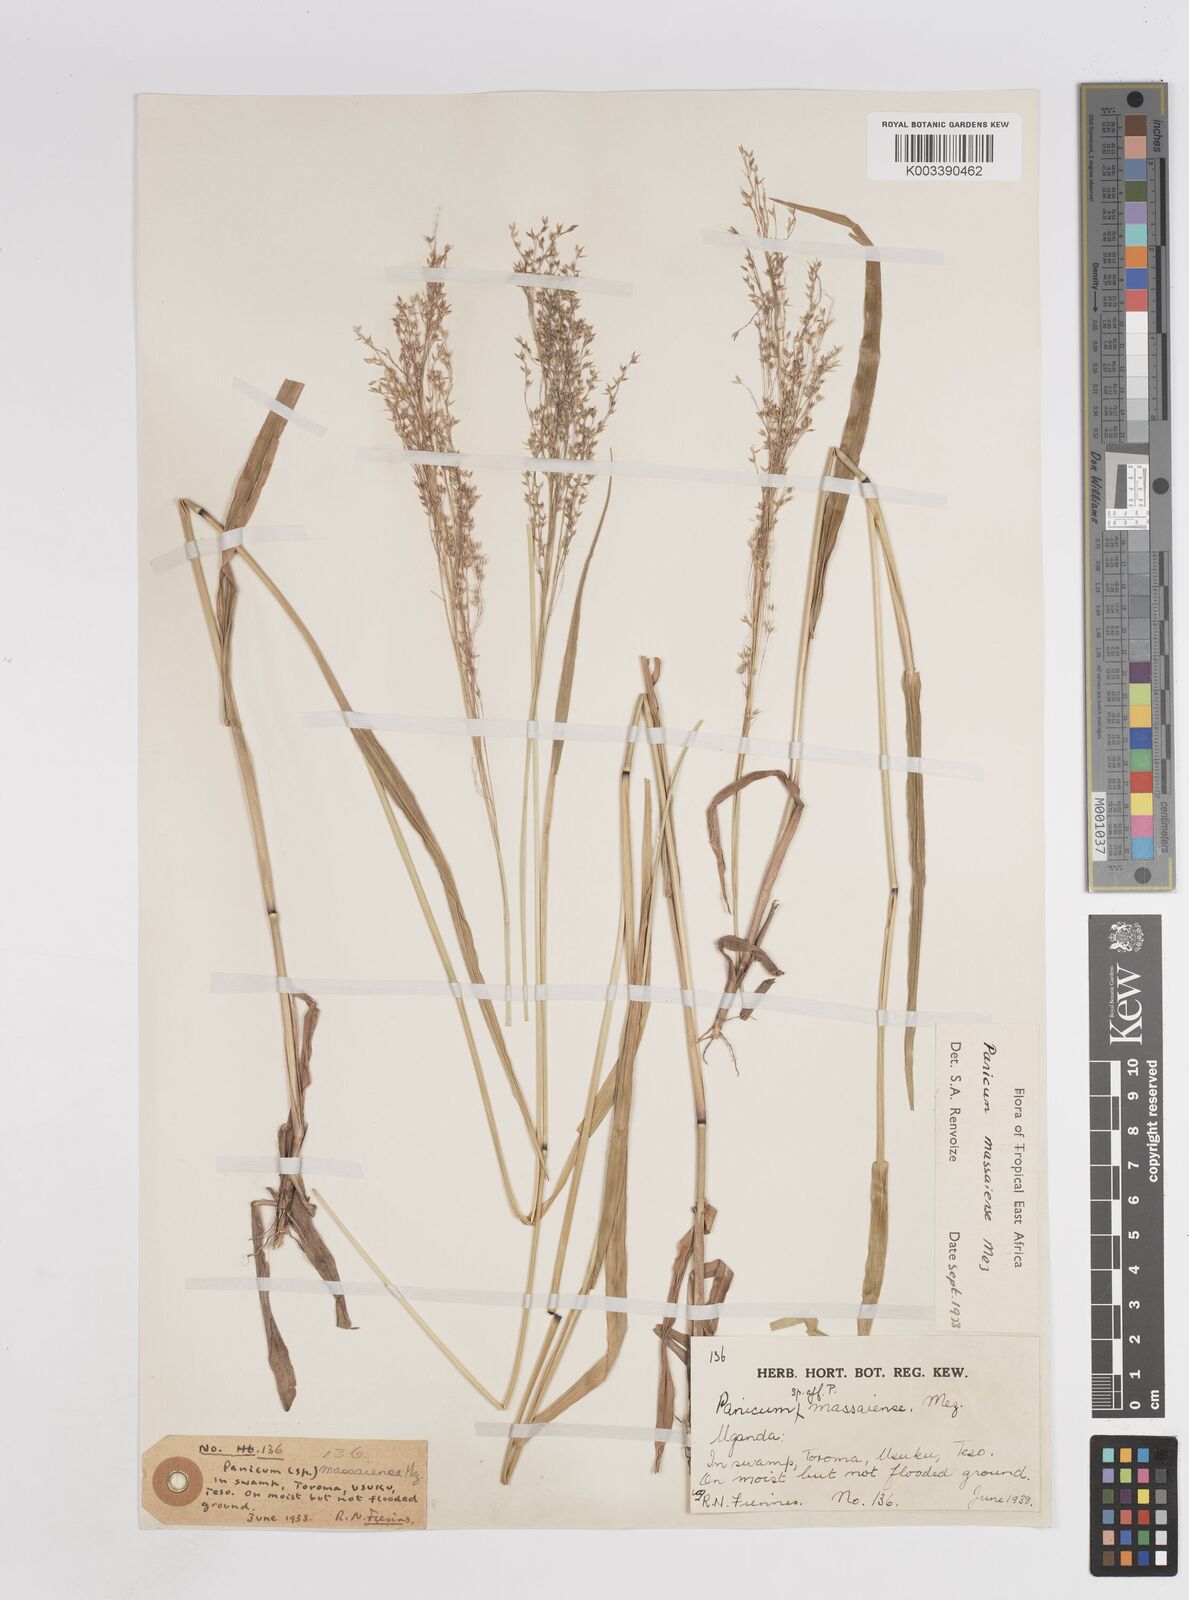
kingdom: Plantae
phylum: Tracheophyta
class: Liliopsida
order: Poales
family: Poaceae
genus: Panicum
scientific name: Panicum massaiense
